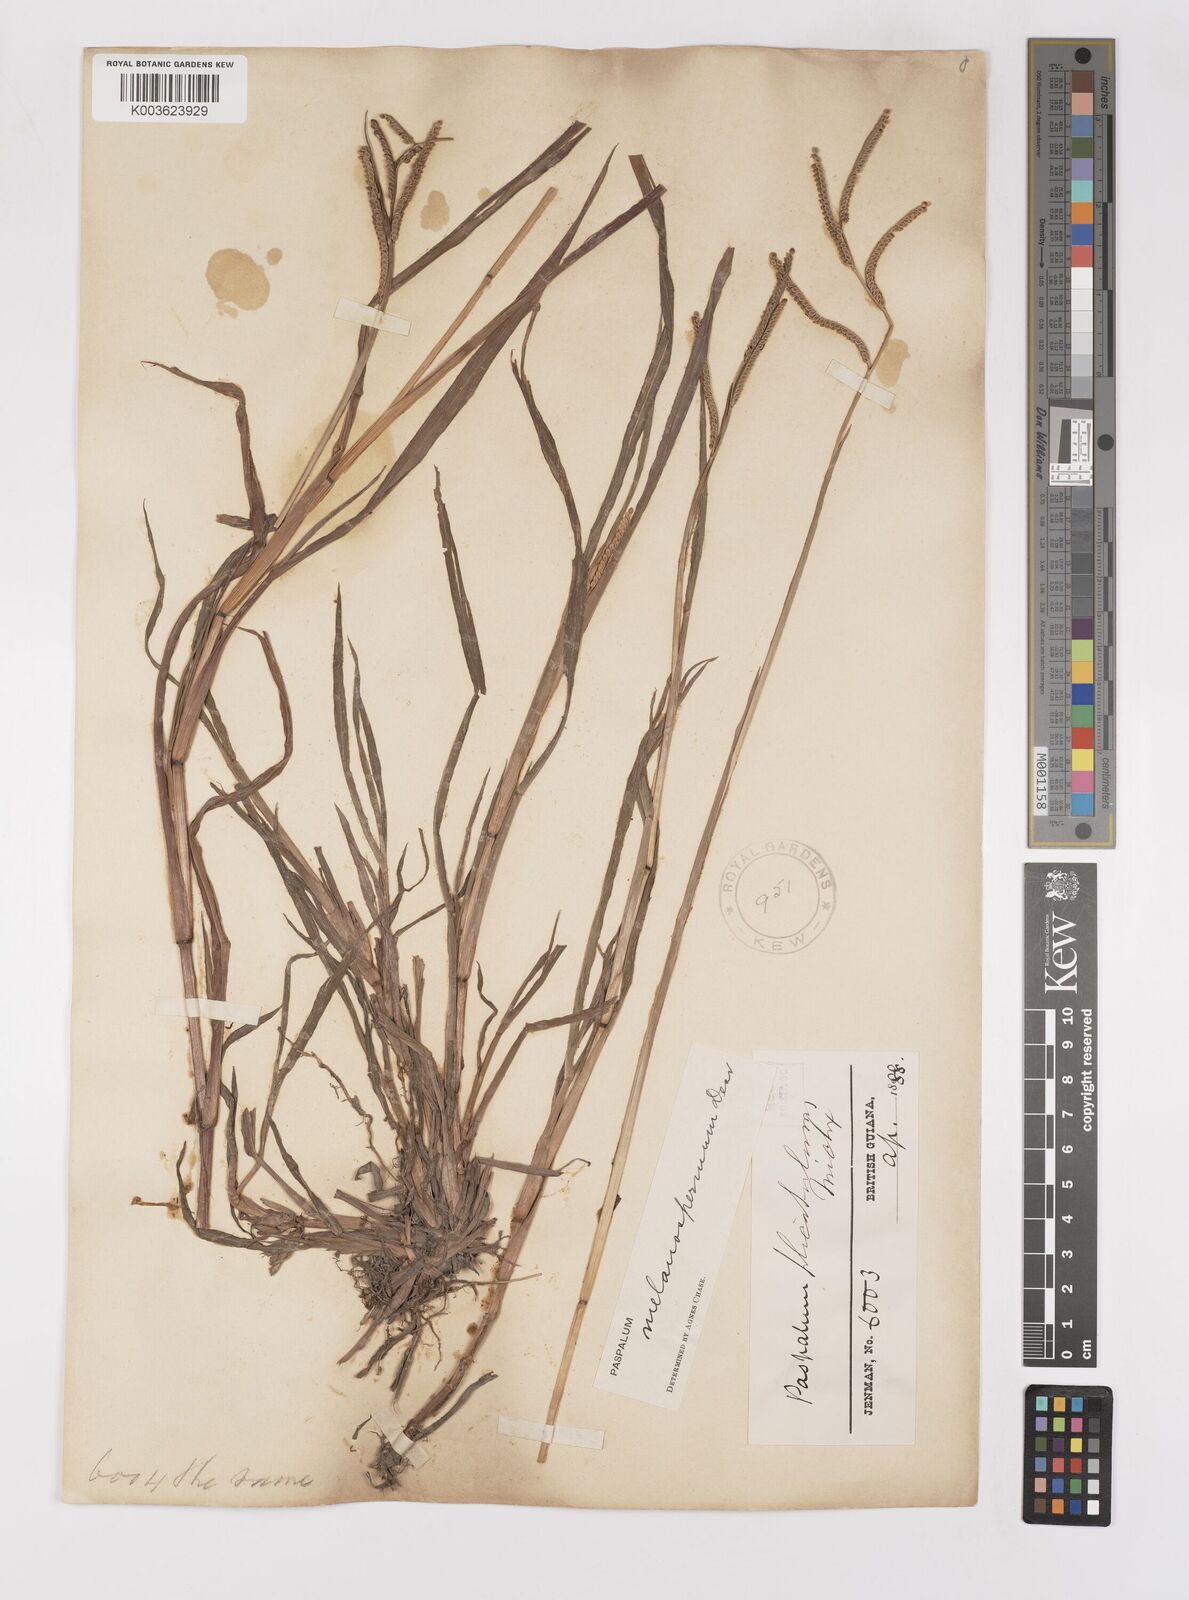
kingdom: Plantae
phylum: Tracheophyta
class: Liliopsida
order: Poales
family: Poaceae
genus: Paspalum
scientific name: Paspalum melanospermum
